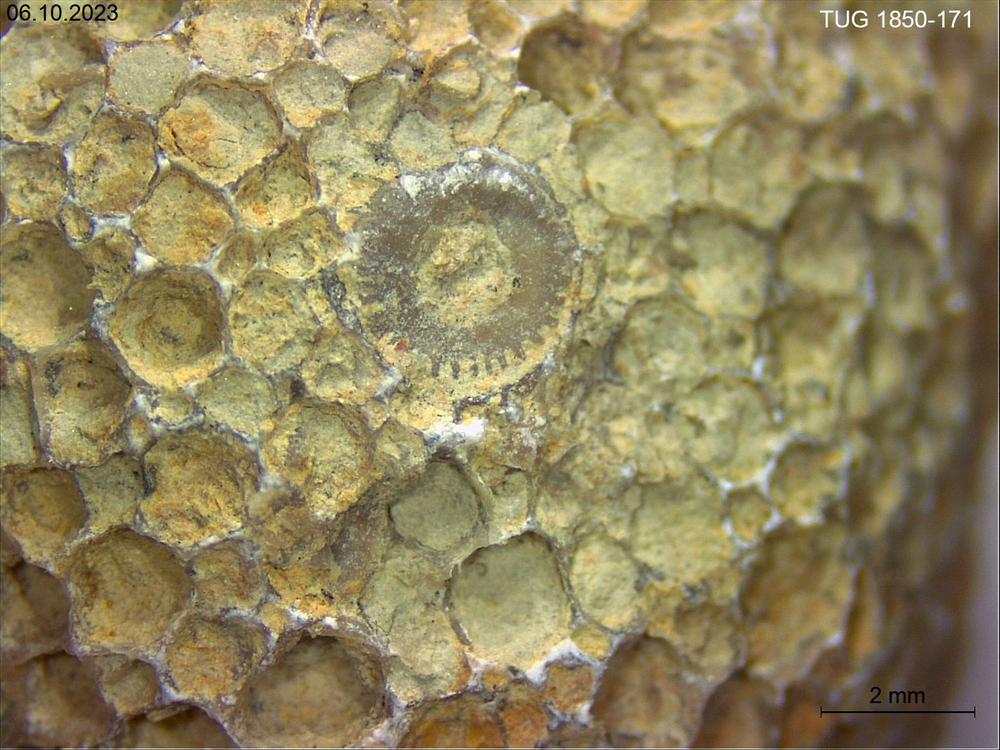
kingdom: Animalia
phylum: Cnidaria
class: Anthozoa
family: Favositidae
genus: Favosites
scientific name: Favosites
